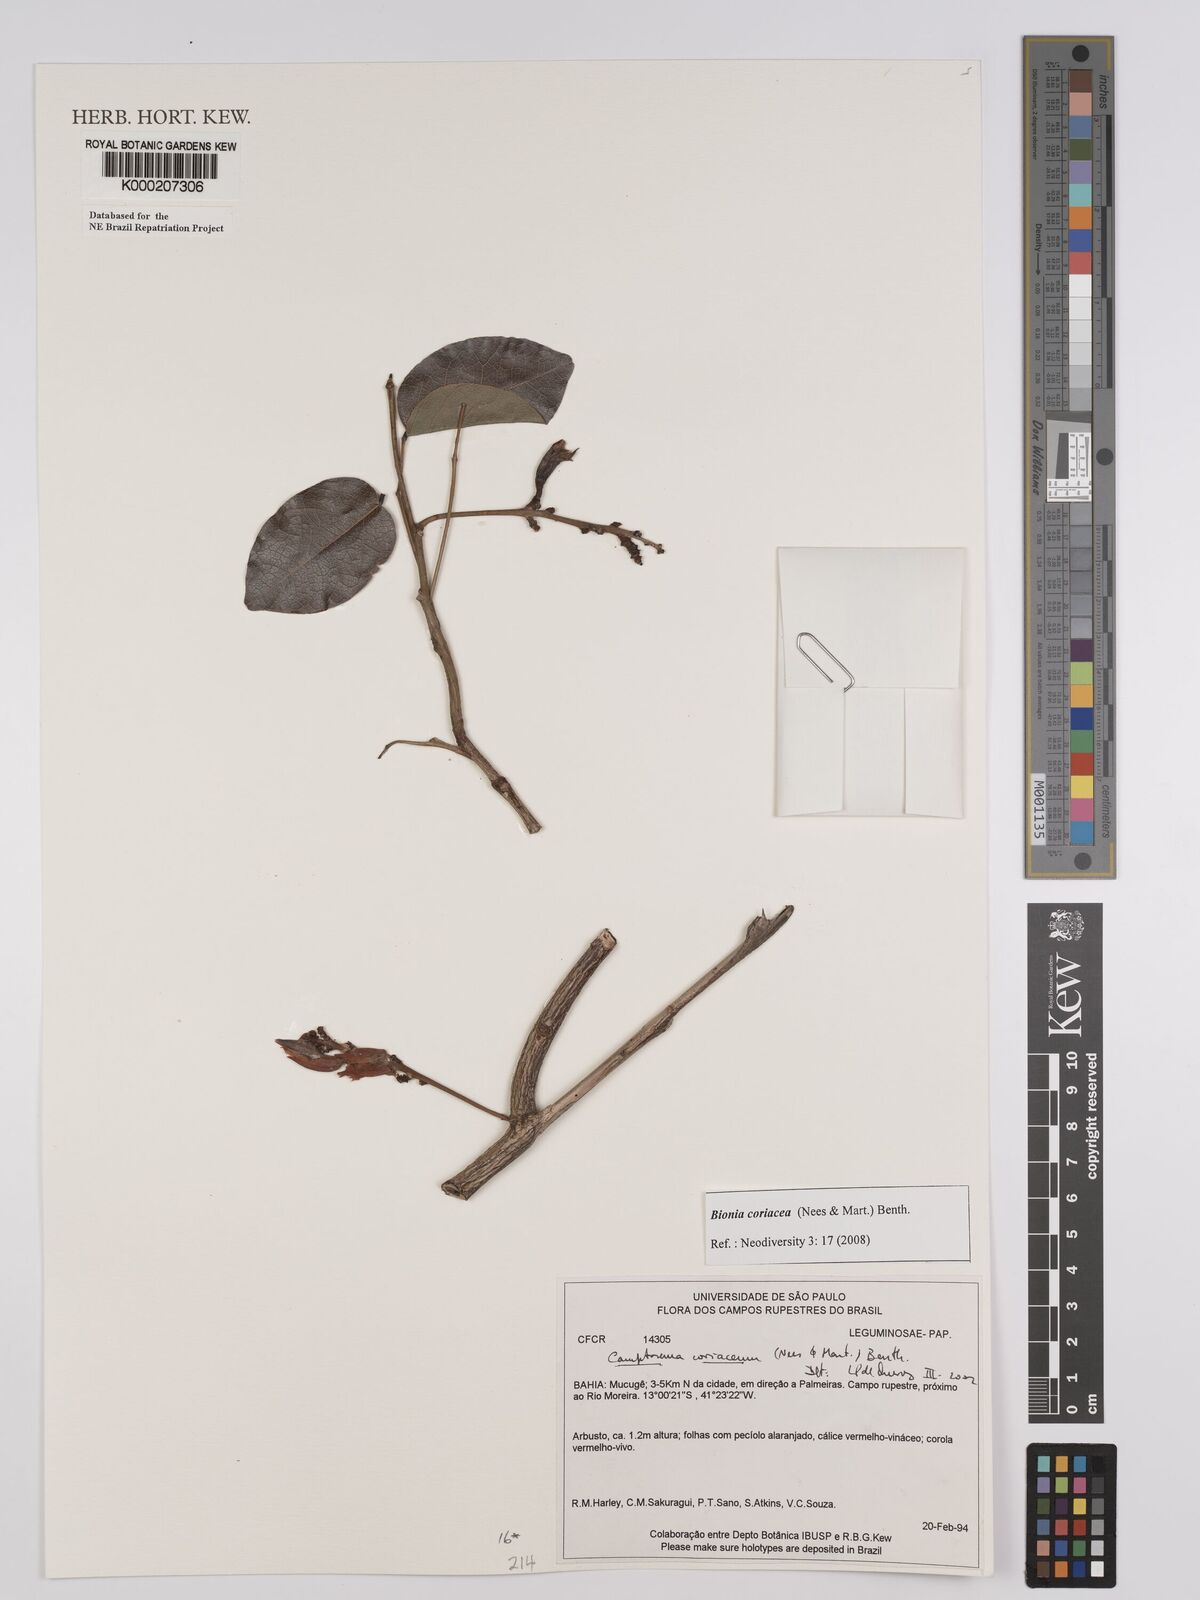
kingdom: Plantae
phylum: Tracheophyta
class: Magnoliopsida
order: Fabales
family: Fabaceae
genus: Camptosema
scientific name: Camptosema coriaceum
